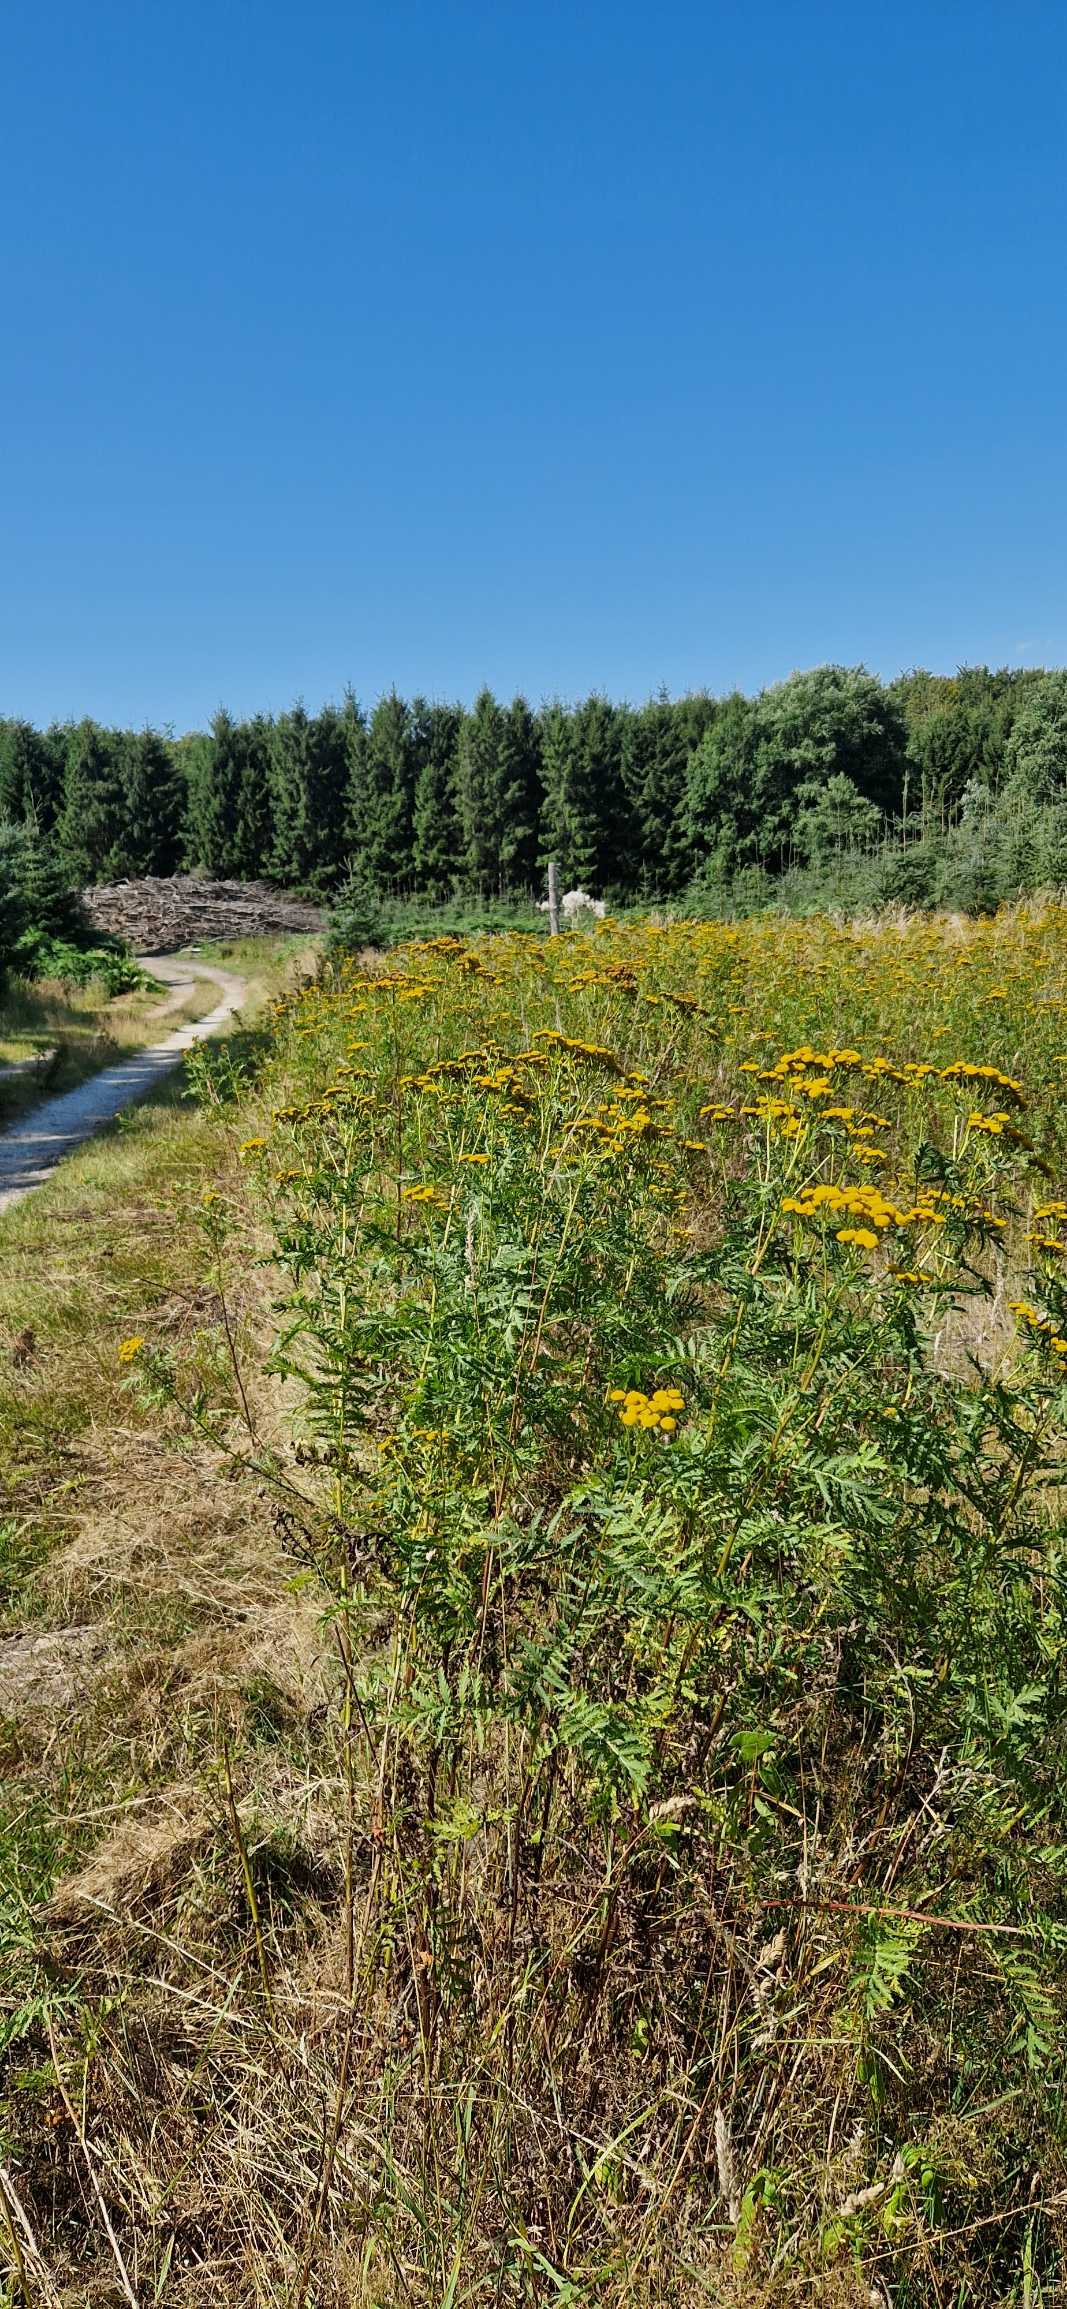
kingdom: Plantae
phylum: Tracheophyta
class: Magnoliopsida
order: Asterales
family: Asteraceae
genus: Tanacetum
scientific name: Tanacetum vulgare
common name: Rejnfan
